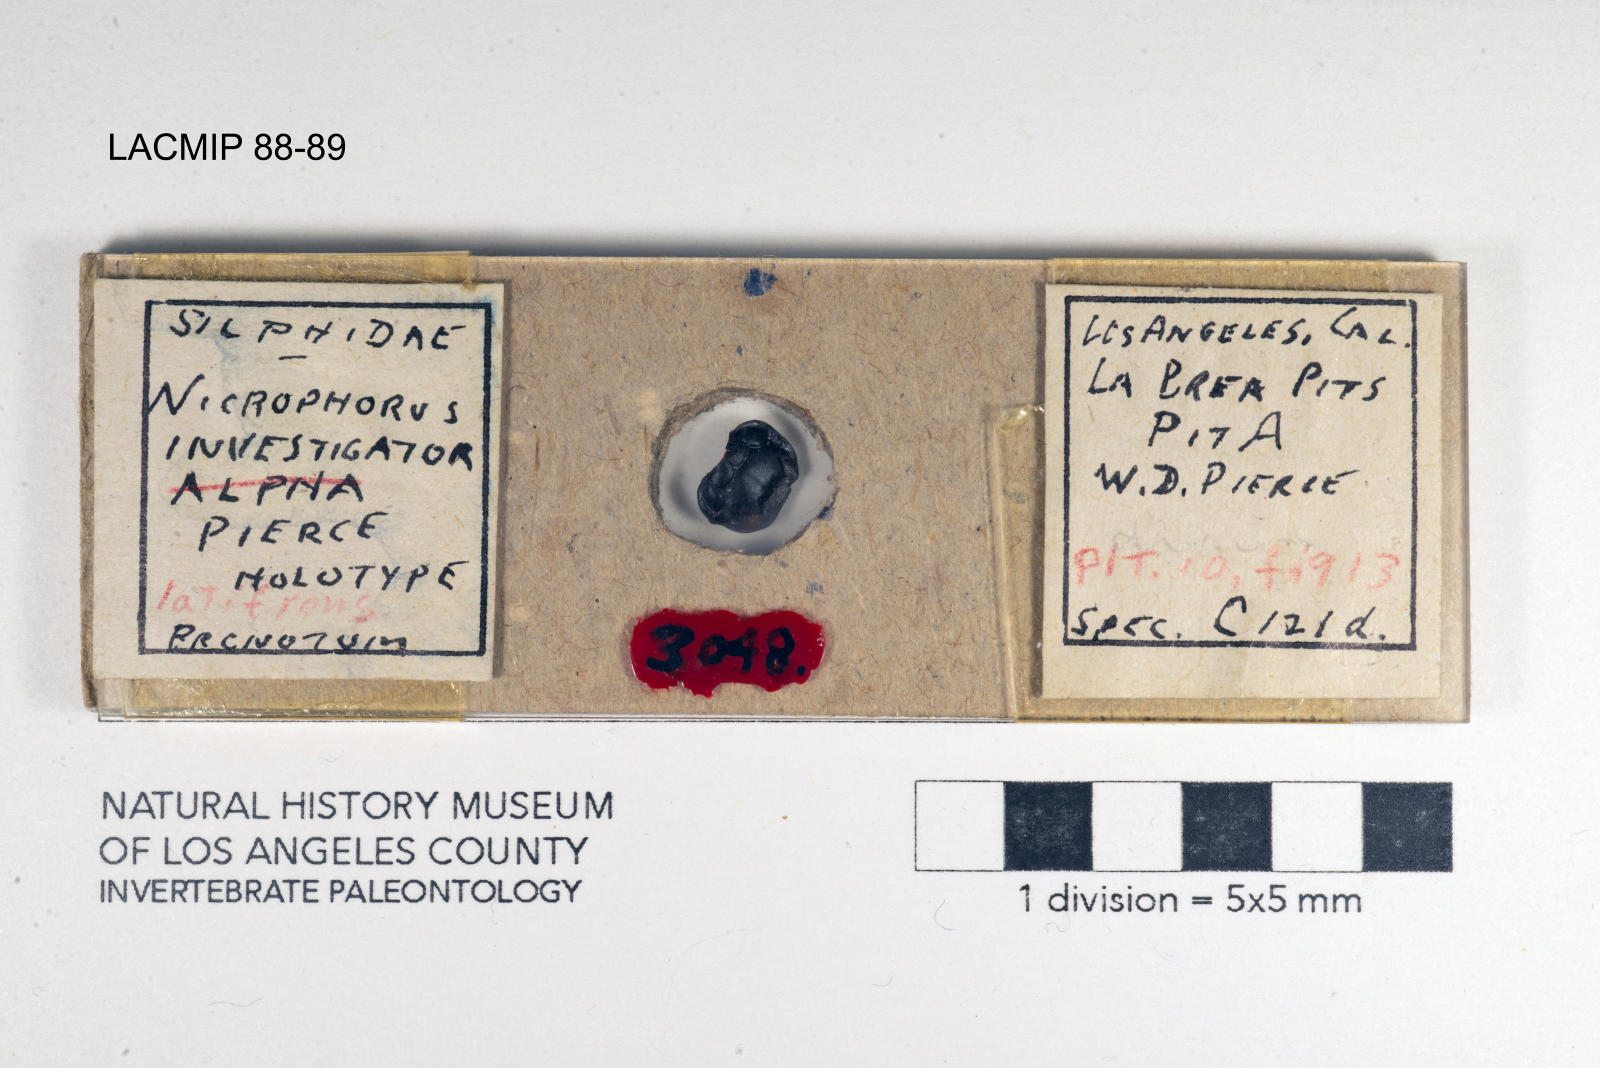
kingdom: Animalia
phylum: Arthropoda
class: Insecta
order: Coleoptera
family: Staphylinidae
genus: Nicrophorus
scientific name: Nicrophorus nigrita
